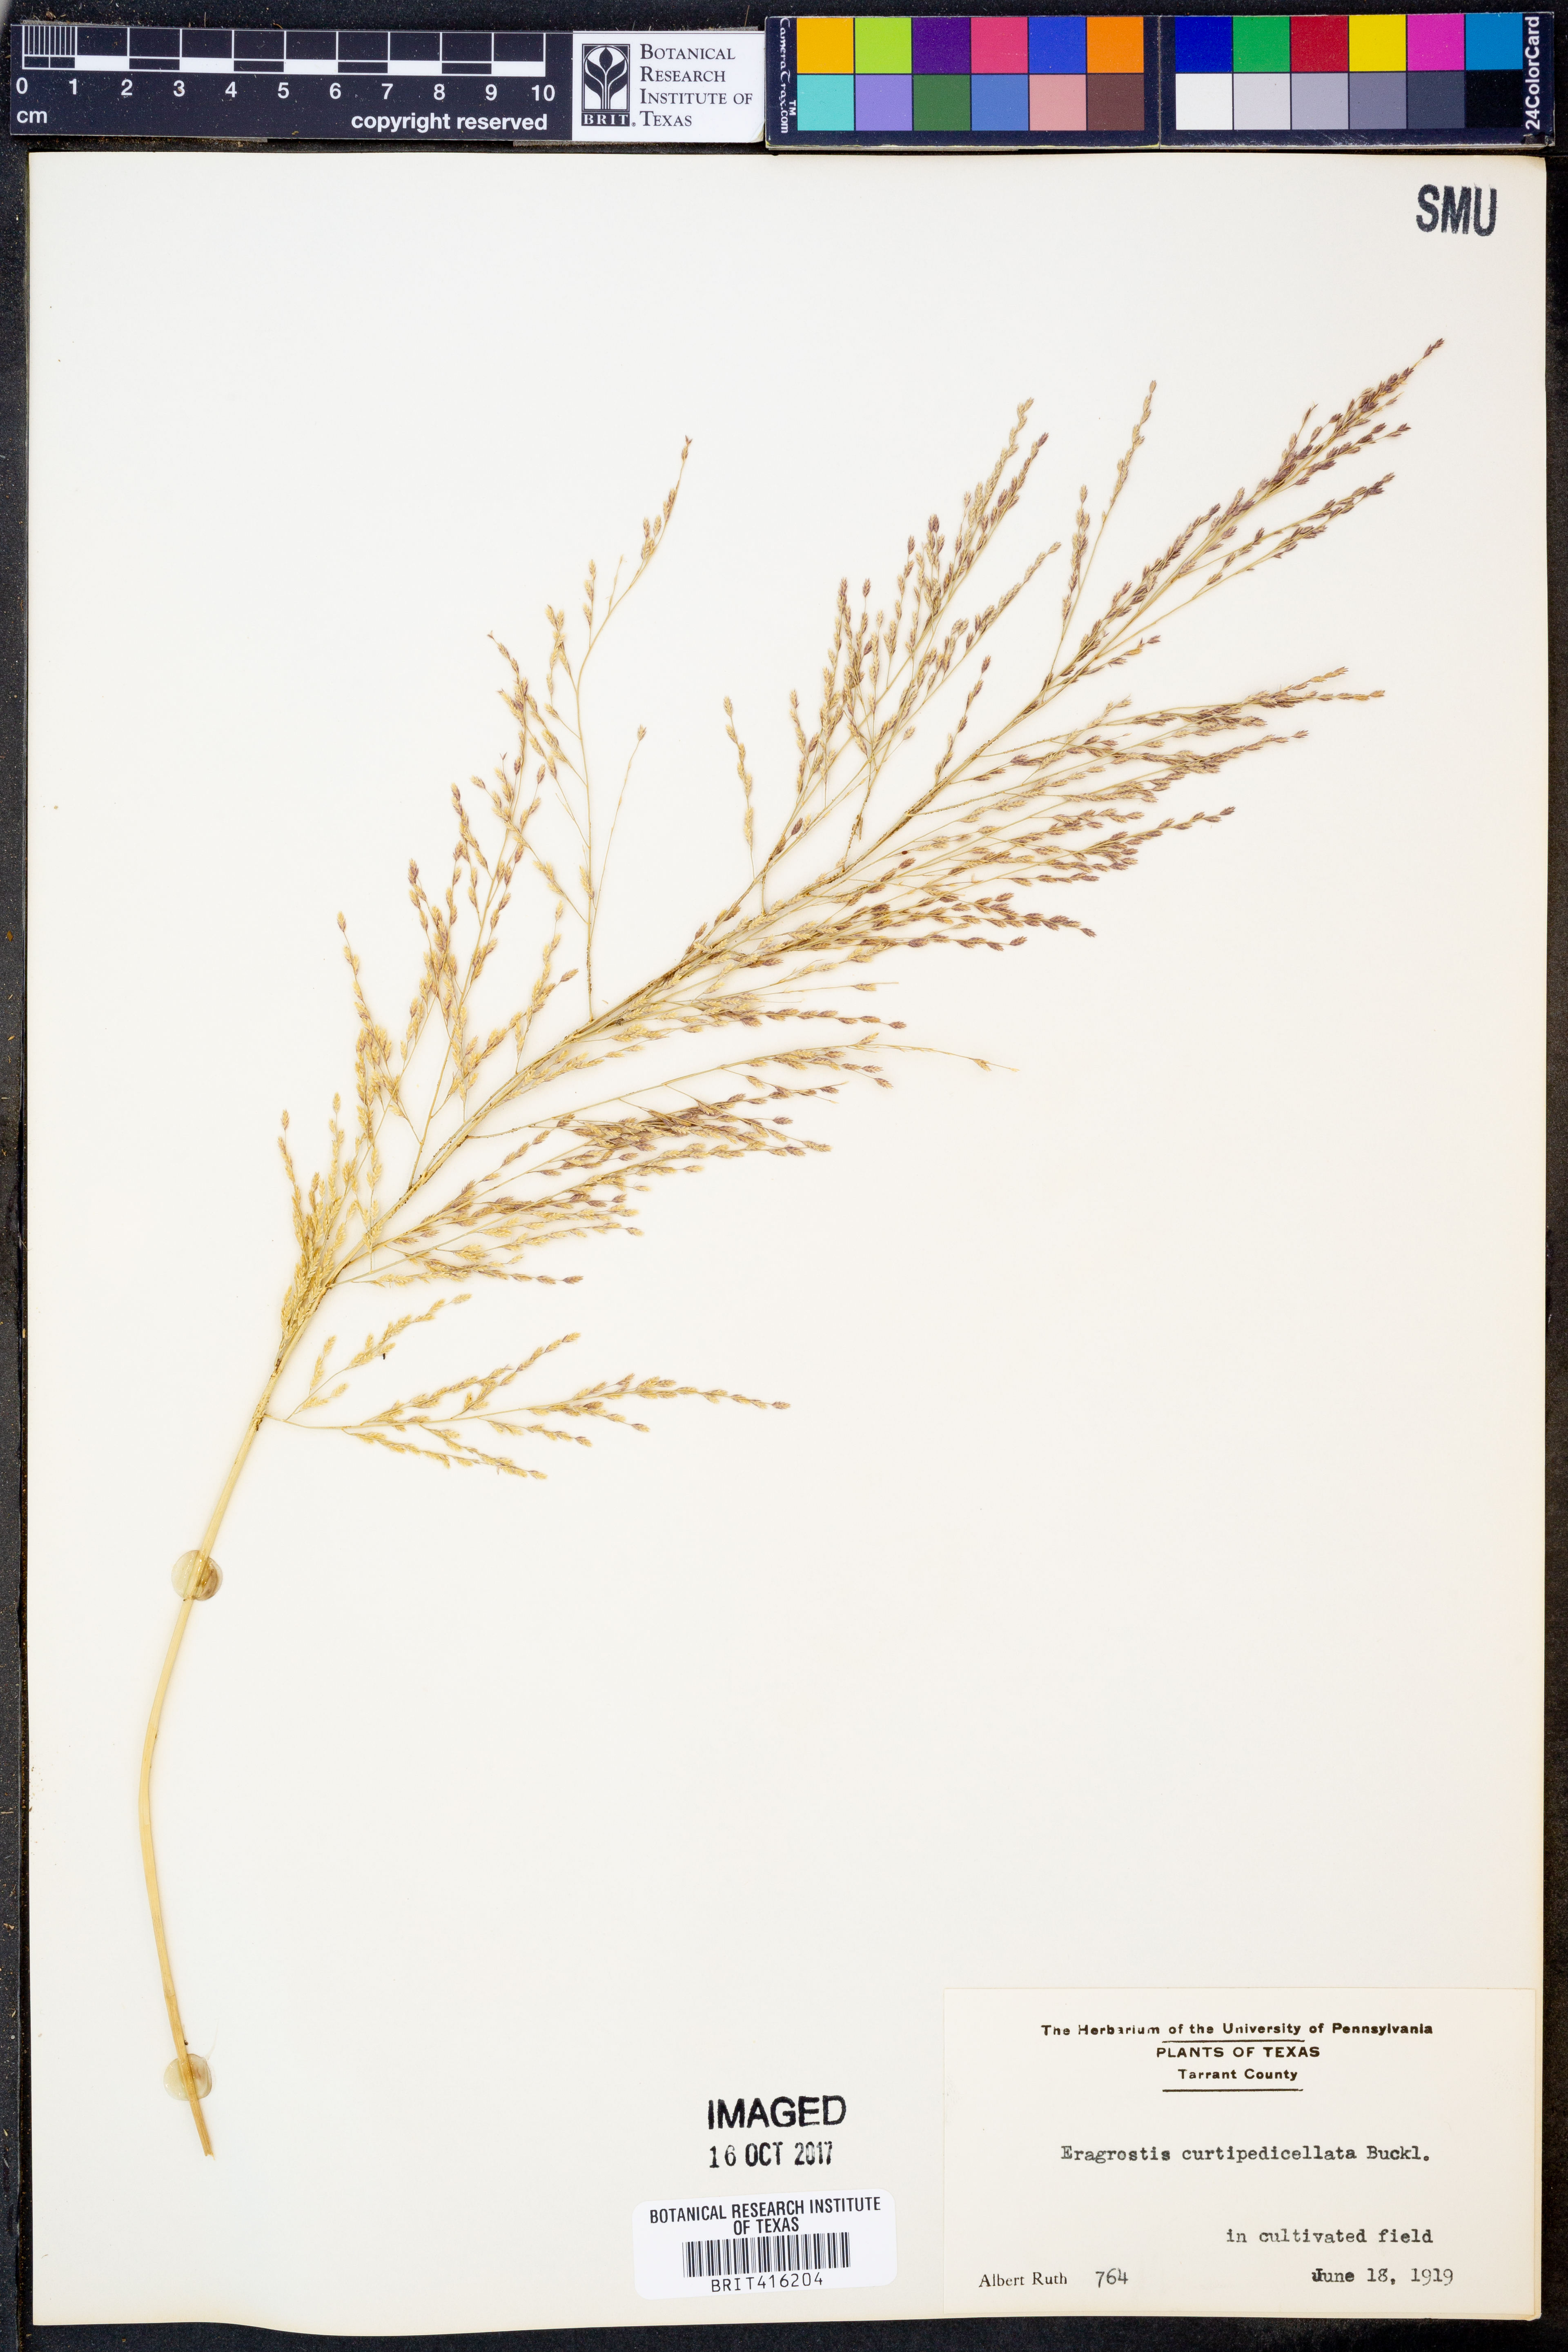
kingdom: Plantae
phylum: Tracheophyta
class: Liliopsida
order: Poales
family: Poaceae
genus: Eragrostis
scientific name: Eragrostis curtipedicellata
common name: Gummy love grass
